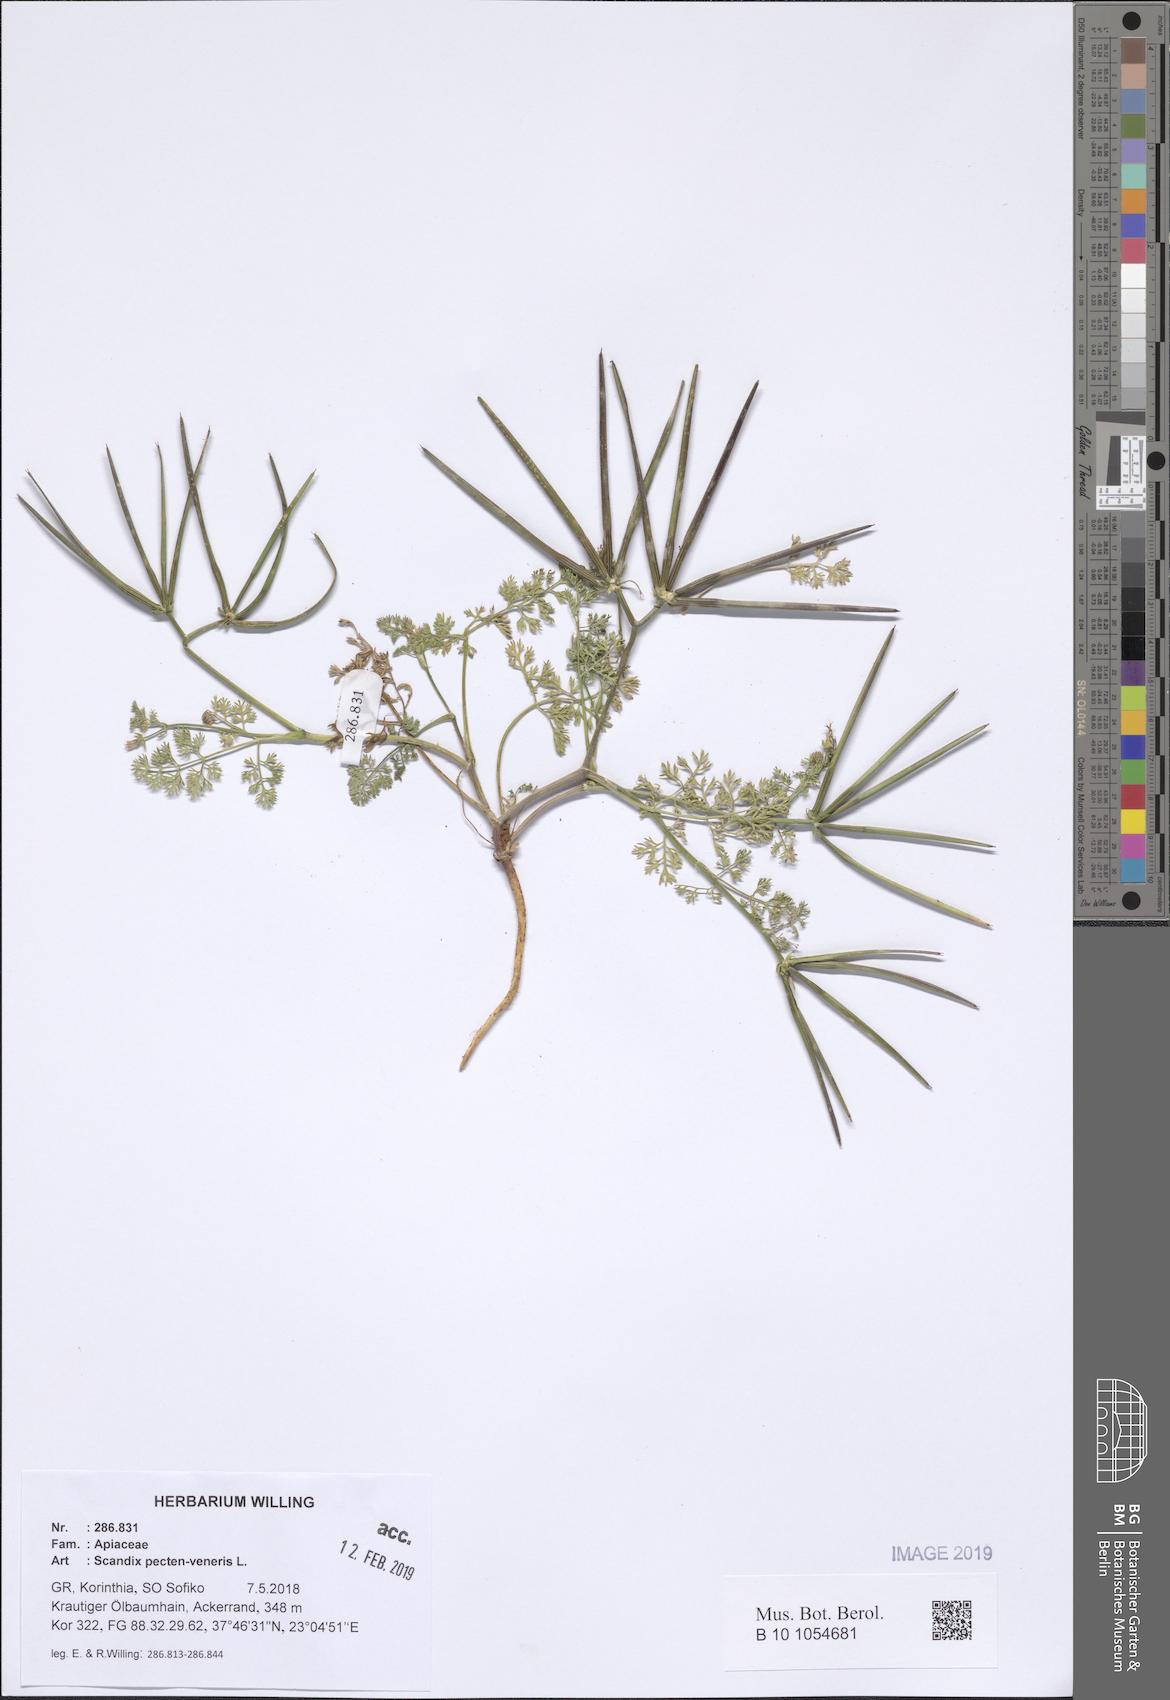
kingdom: Plantae
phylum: Tracheophyta
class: Magnoliopsida
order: Apiales
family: Apiaceae
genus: Scandix
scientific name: Scandix pecten-veneris
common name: Shepherd's-needle
